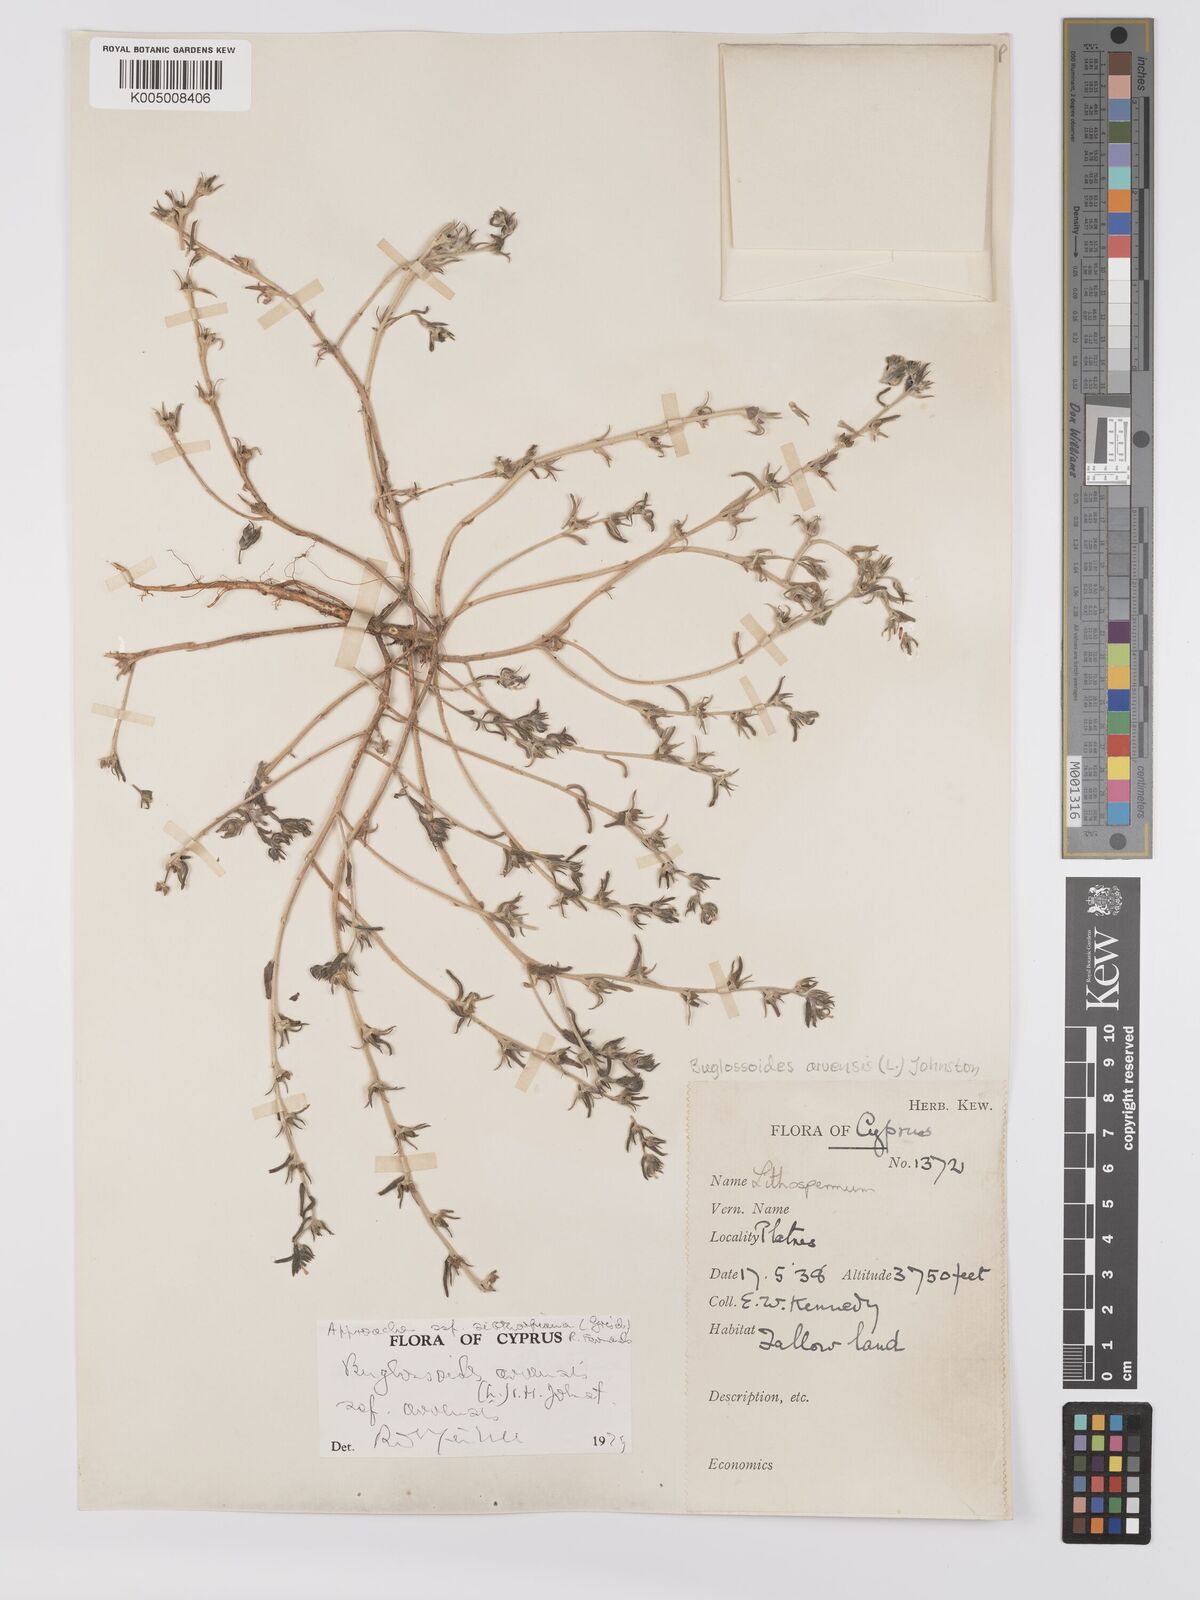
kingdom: Plantae
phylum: Tracheophyta
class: Magnoliopsida
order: Boraginales
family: Boraginaceae
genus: Buglossoides
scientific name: Buglossoides arvensis
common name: Corn gromwell
